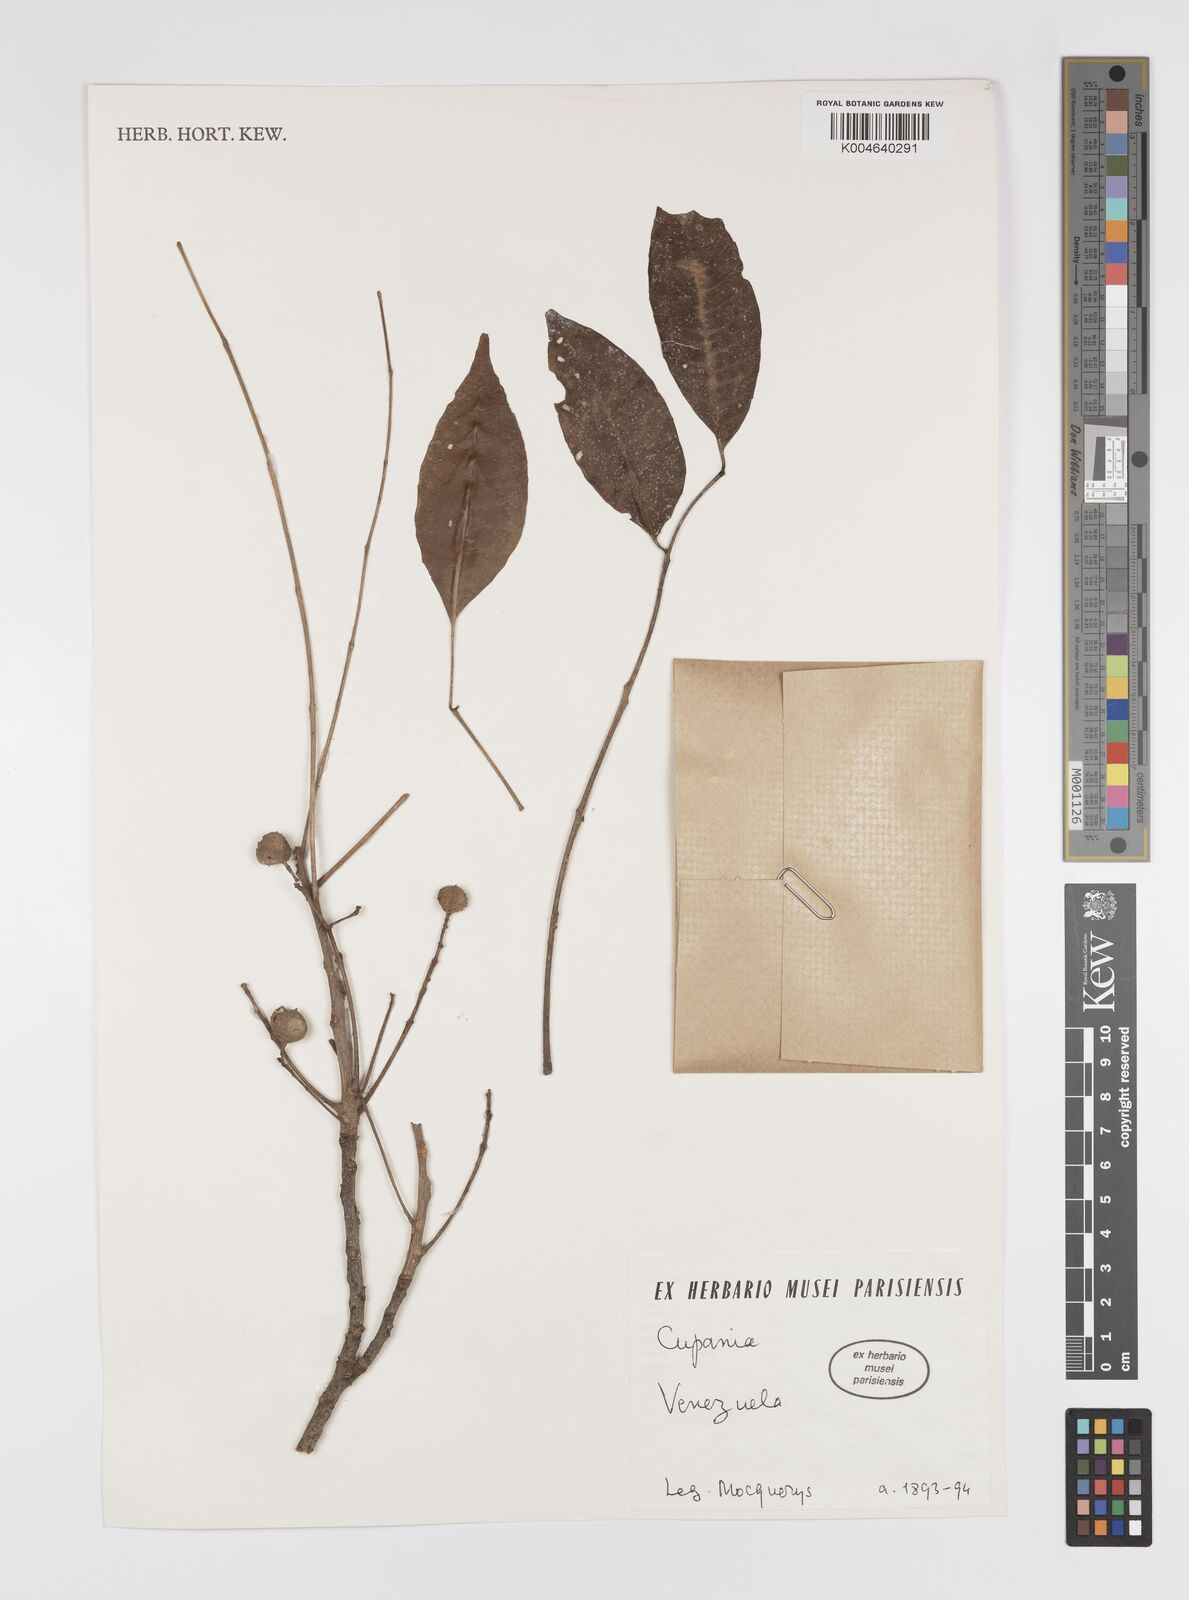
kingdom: Plantae
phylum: Tracheophyta
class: Magnoliopsida
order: Sapindales
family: Sapindaceae
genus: Cupania
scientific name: Cupania
